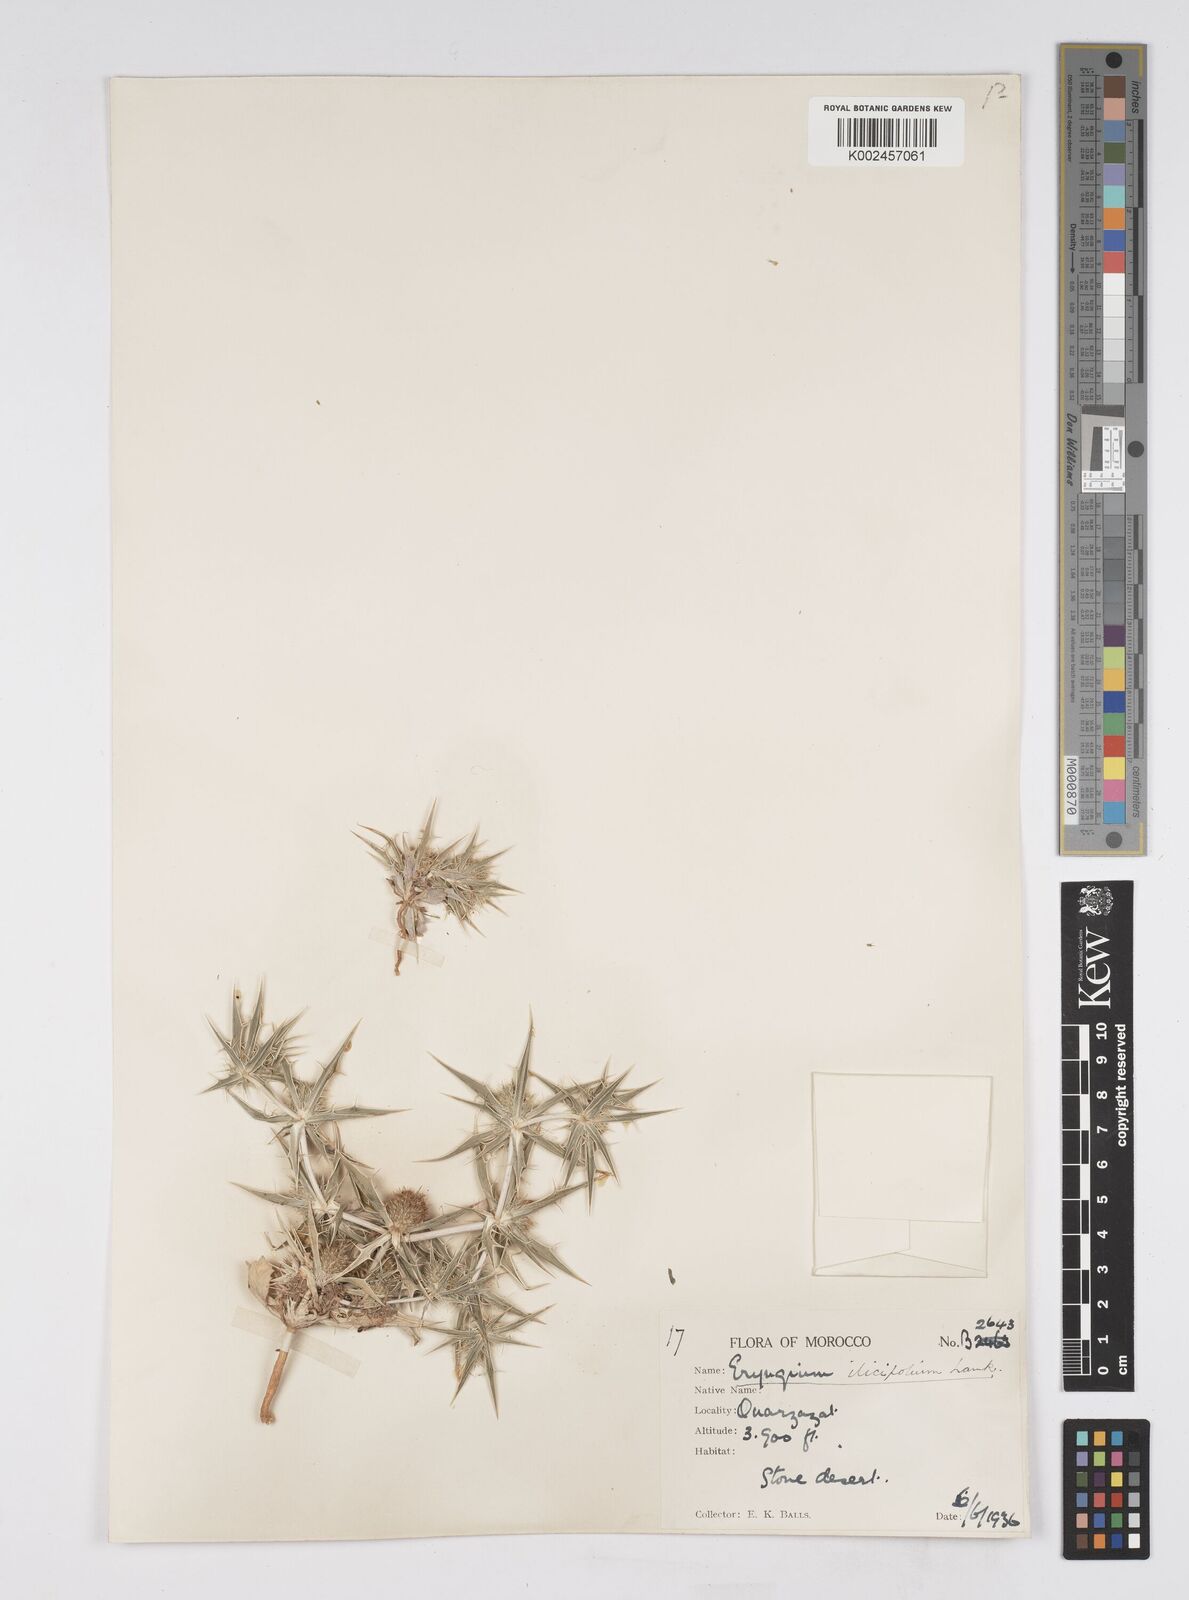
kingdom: Plantae
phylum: Tracheophyta
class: Magnoliopsida
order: Apiales
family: Apiaceae
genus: Eryngium
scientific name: Eryngium
